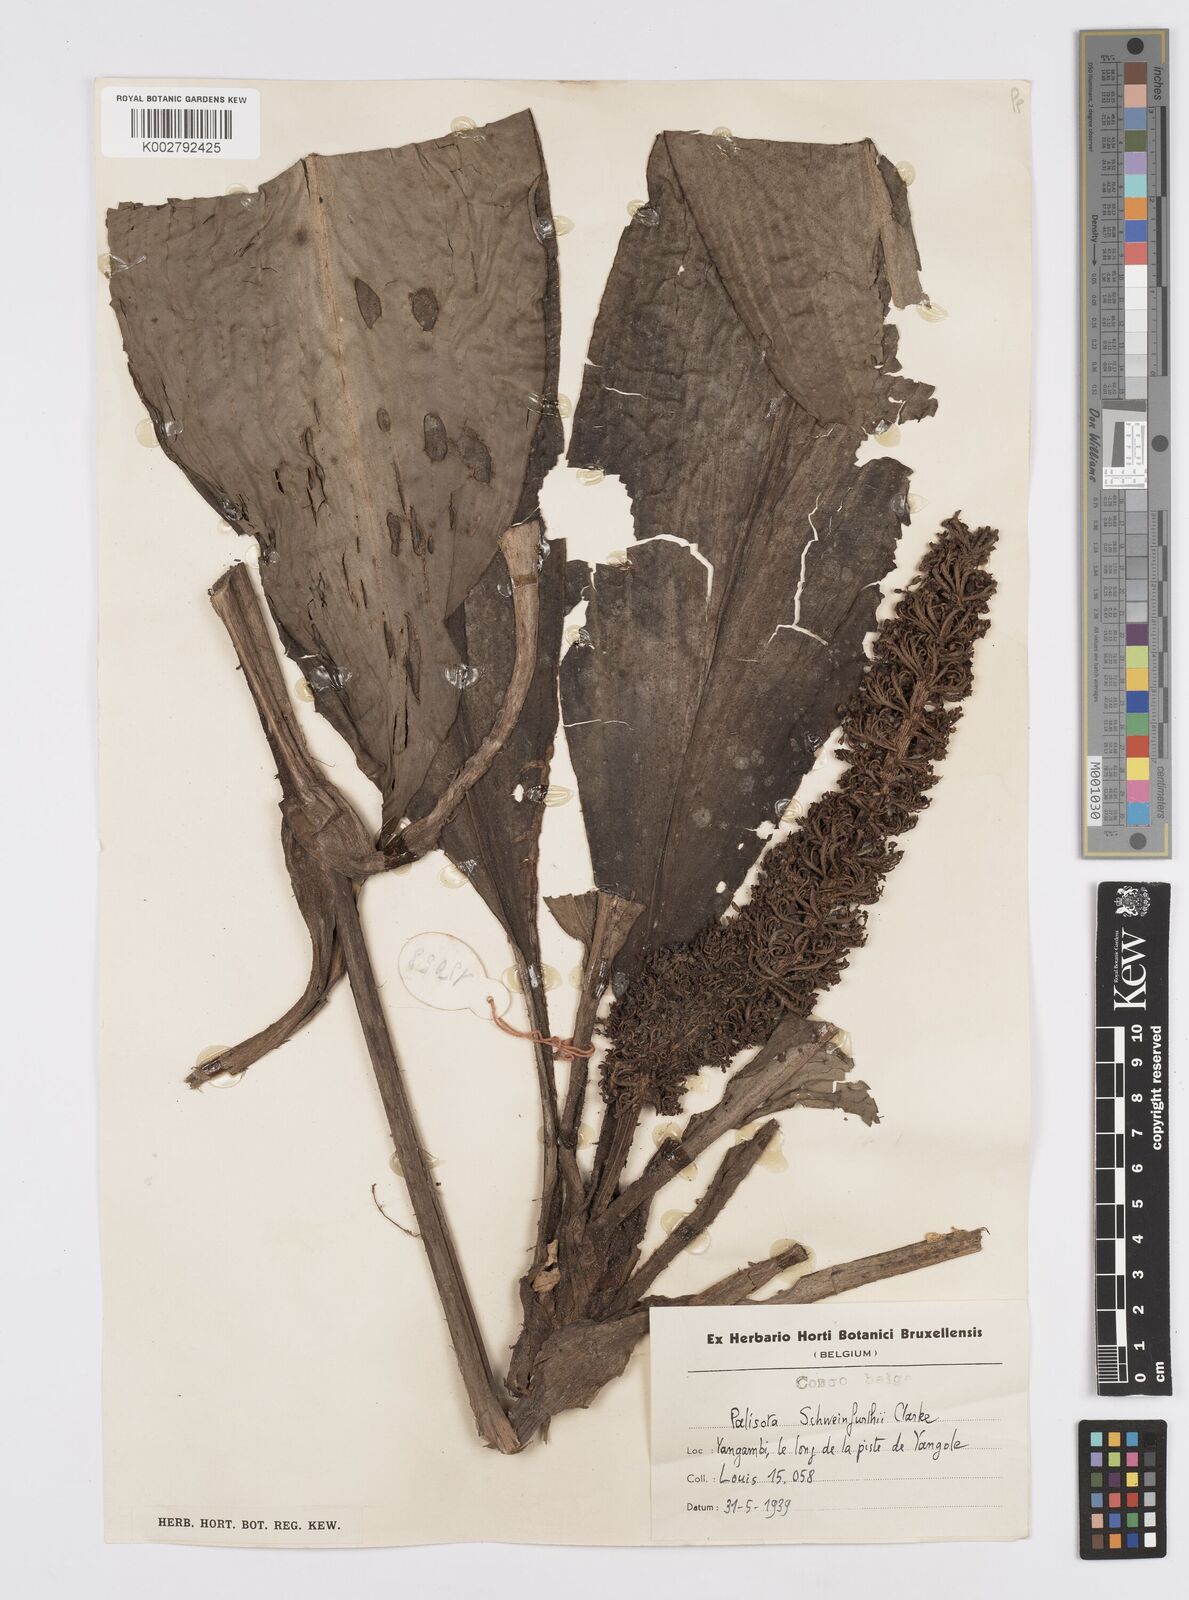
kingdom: Plantae
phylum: Tracheophyta
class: Liliopsida
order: Commelinales
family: Commelinaceae
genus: Palisota
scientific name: Palisota schweinfurthii
